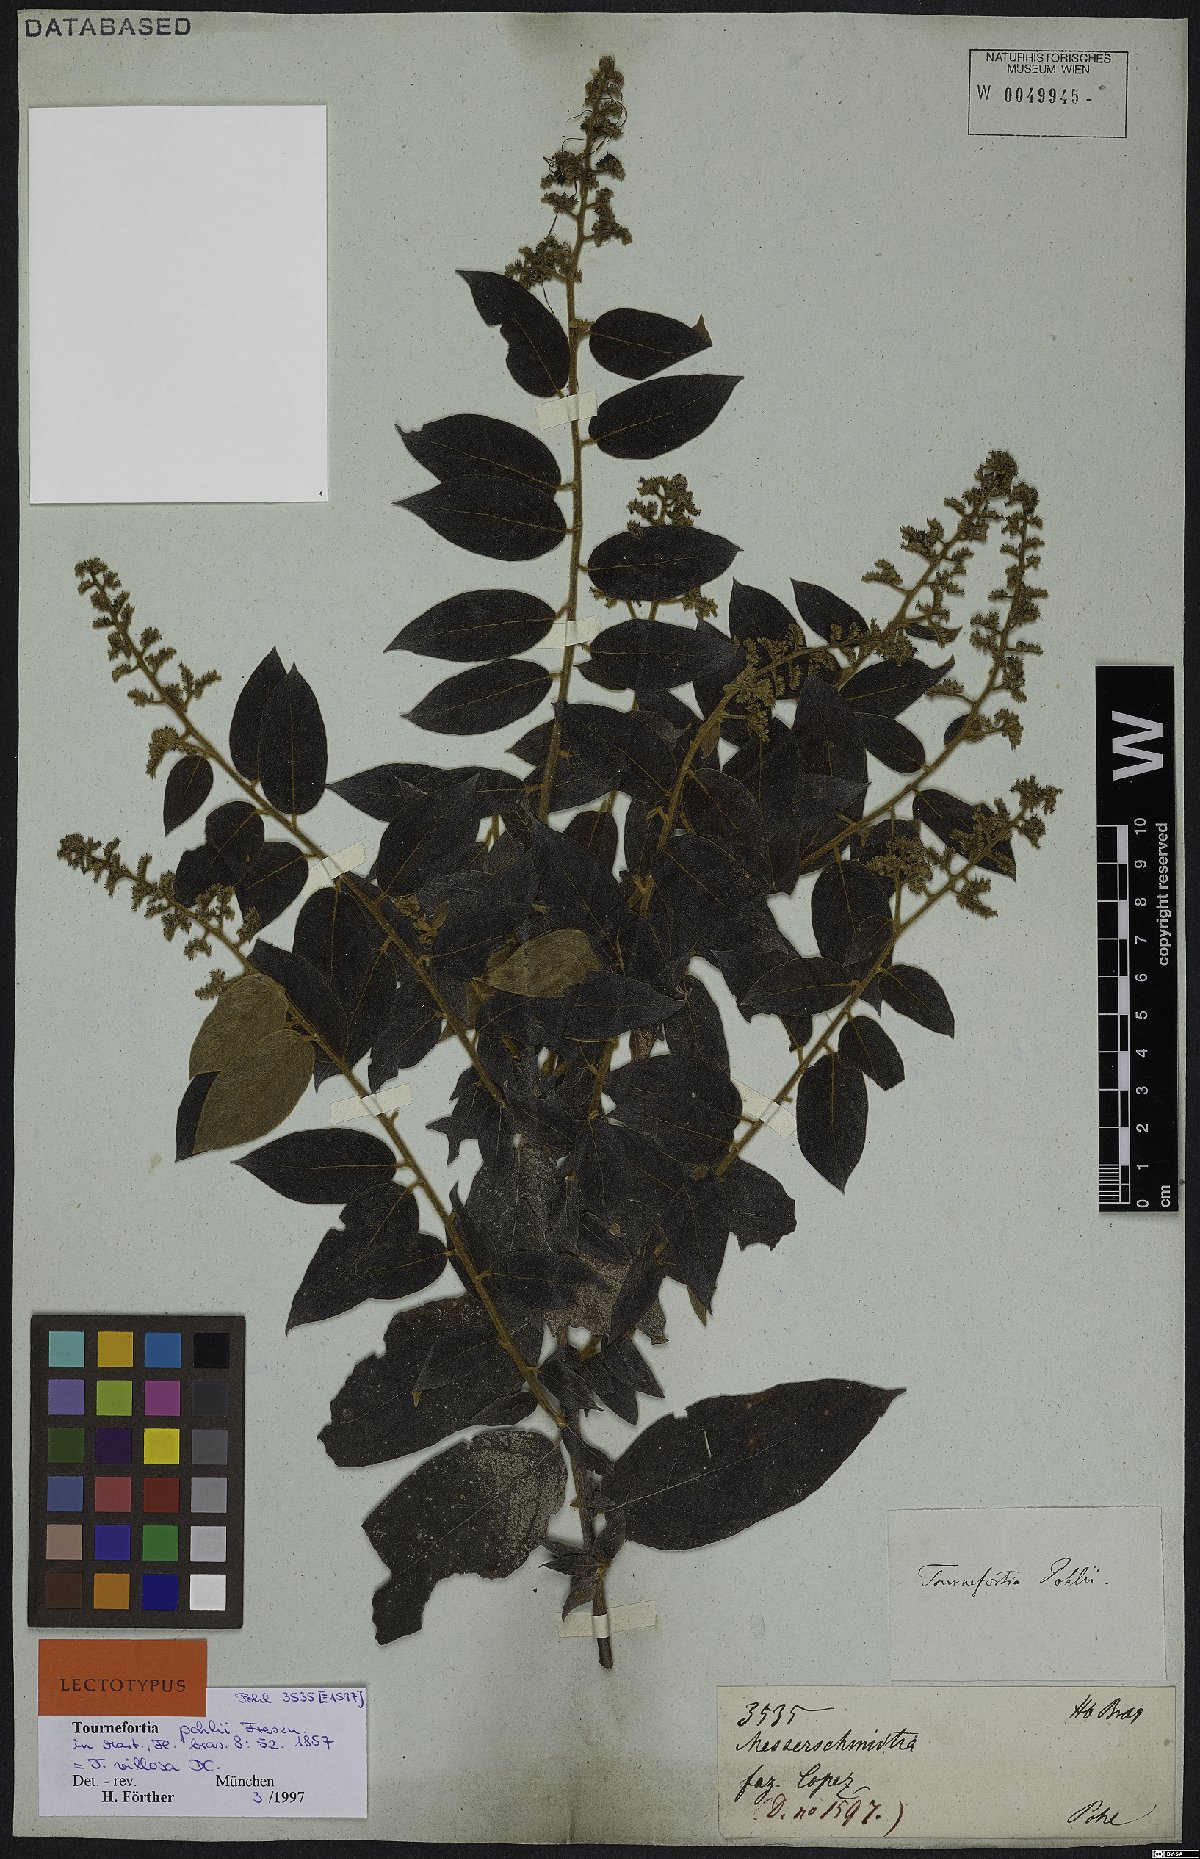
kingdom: Plantae
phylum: Tracheophyta
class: Magnoliopsida
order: Boraginales
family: Heliotropiaceae
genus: Tournefortia
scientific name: Tournefortia villosa
